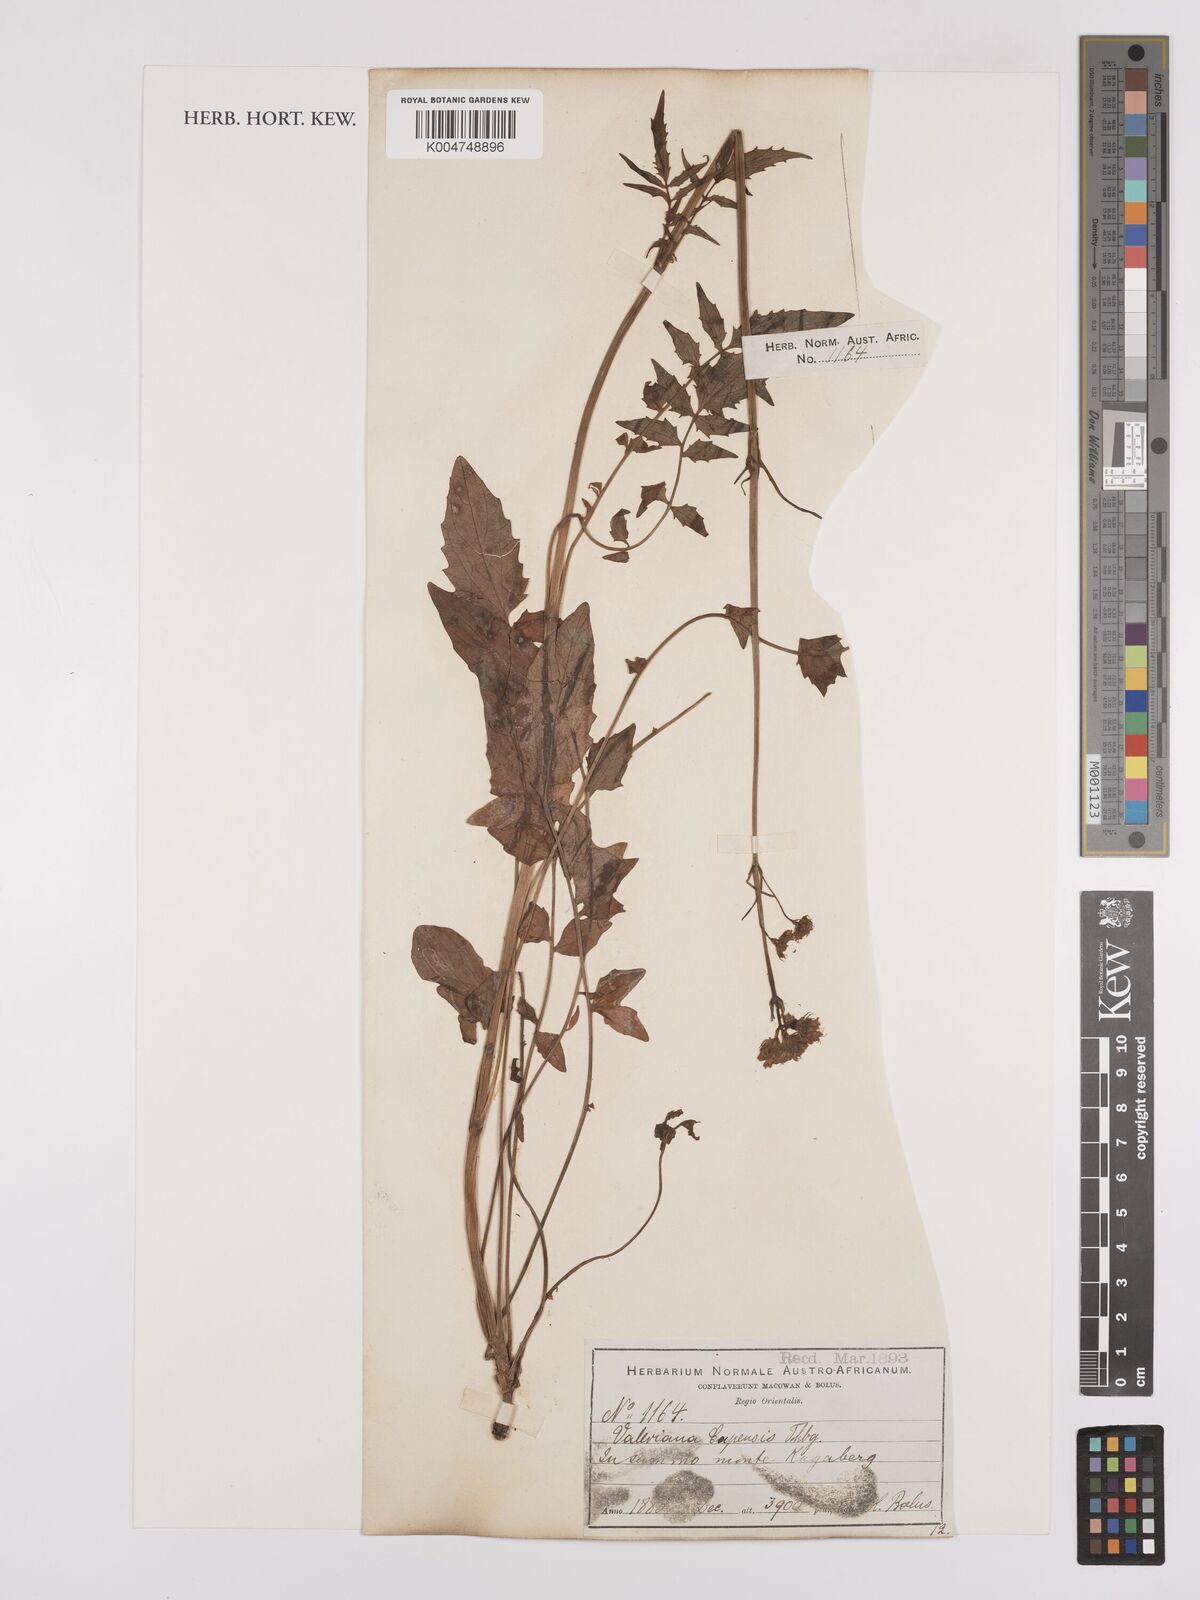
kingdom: Plantae
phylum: Tracheophyta
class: Magnoliopsida
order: Dipsacales
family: Caprifoliaceae
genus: Valeriana
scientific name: Valeriana capensis
